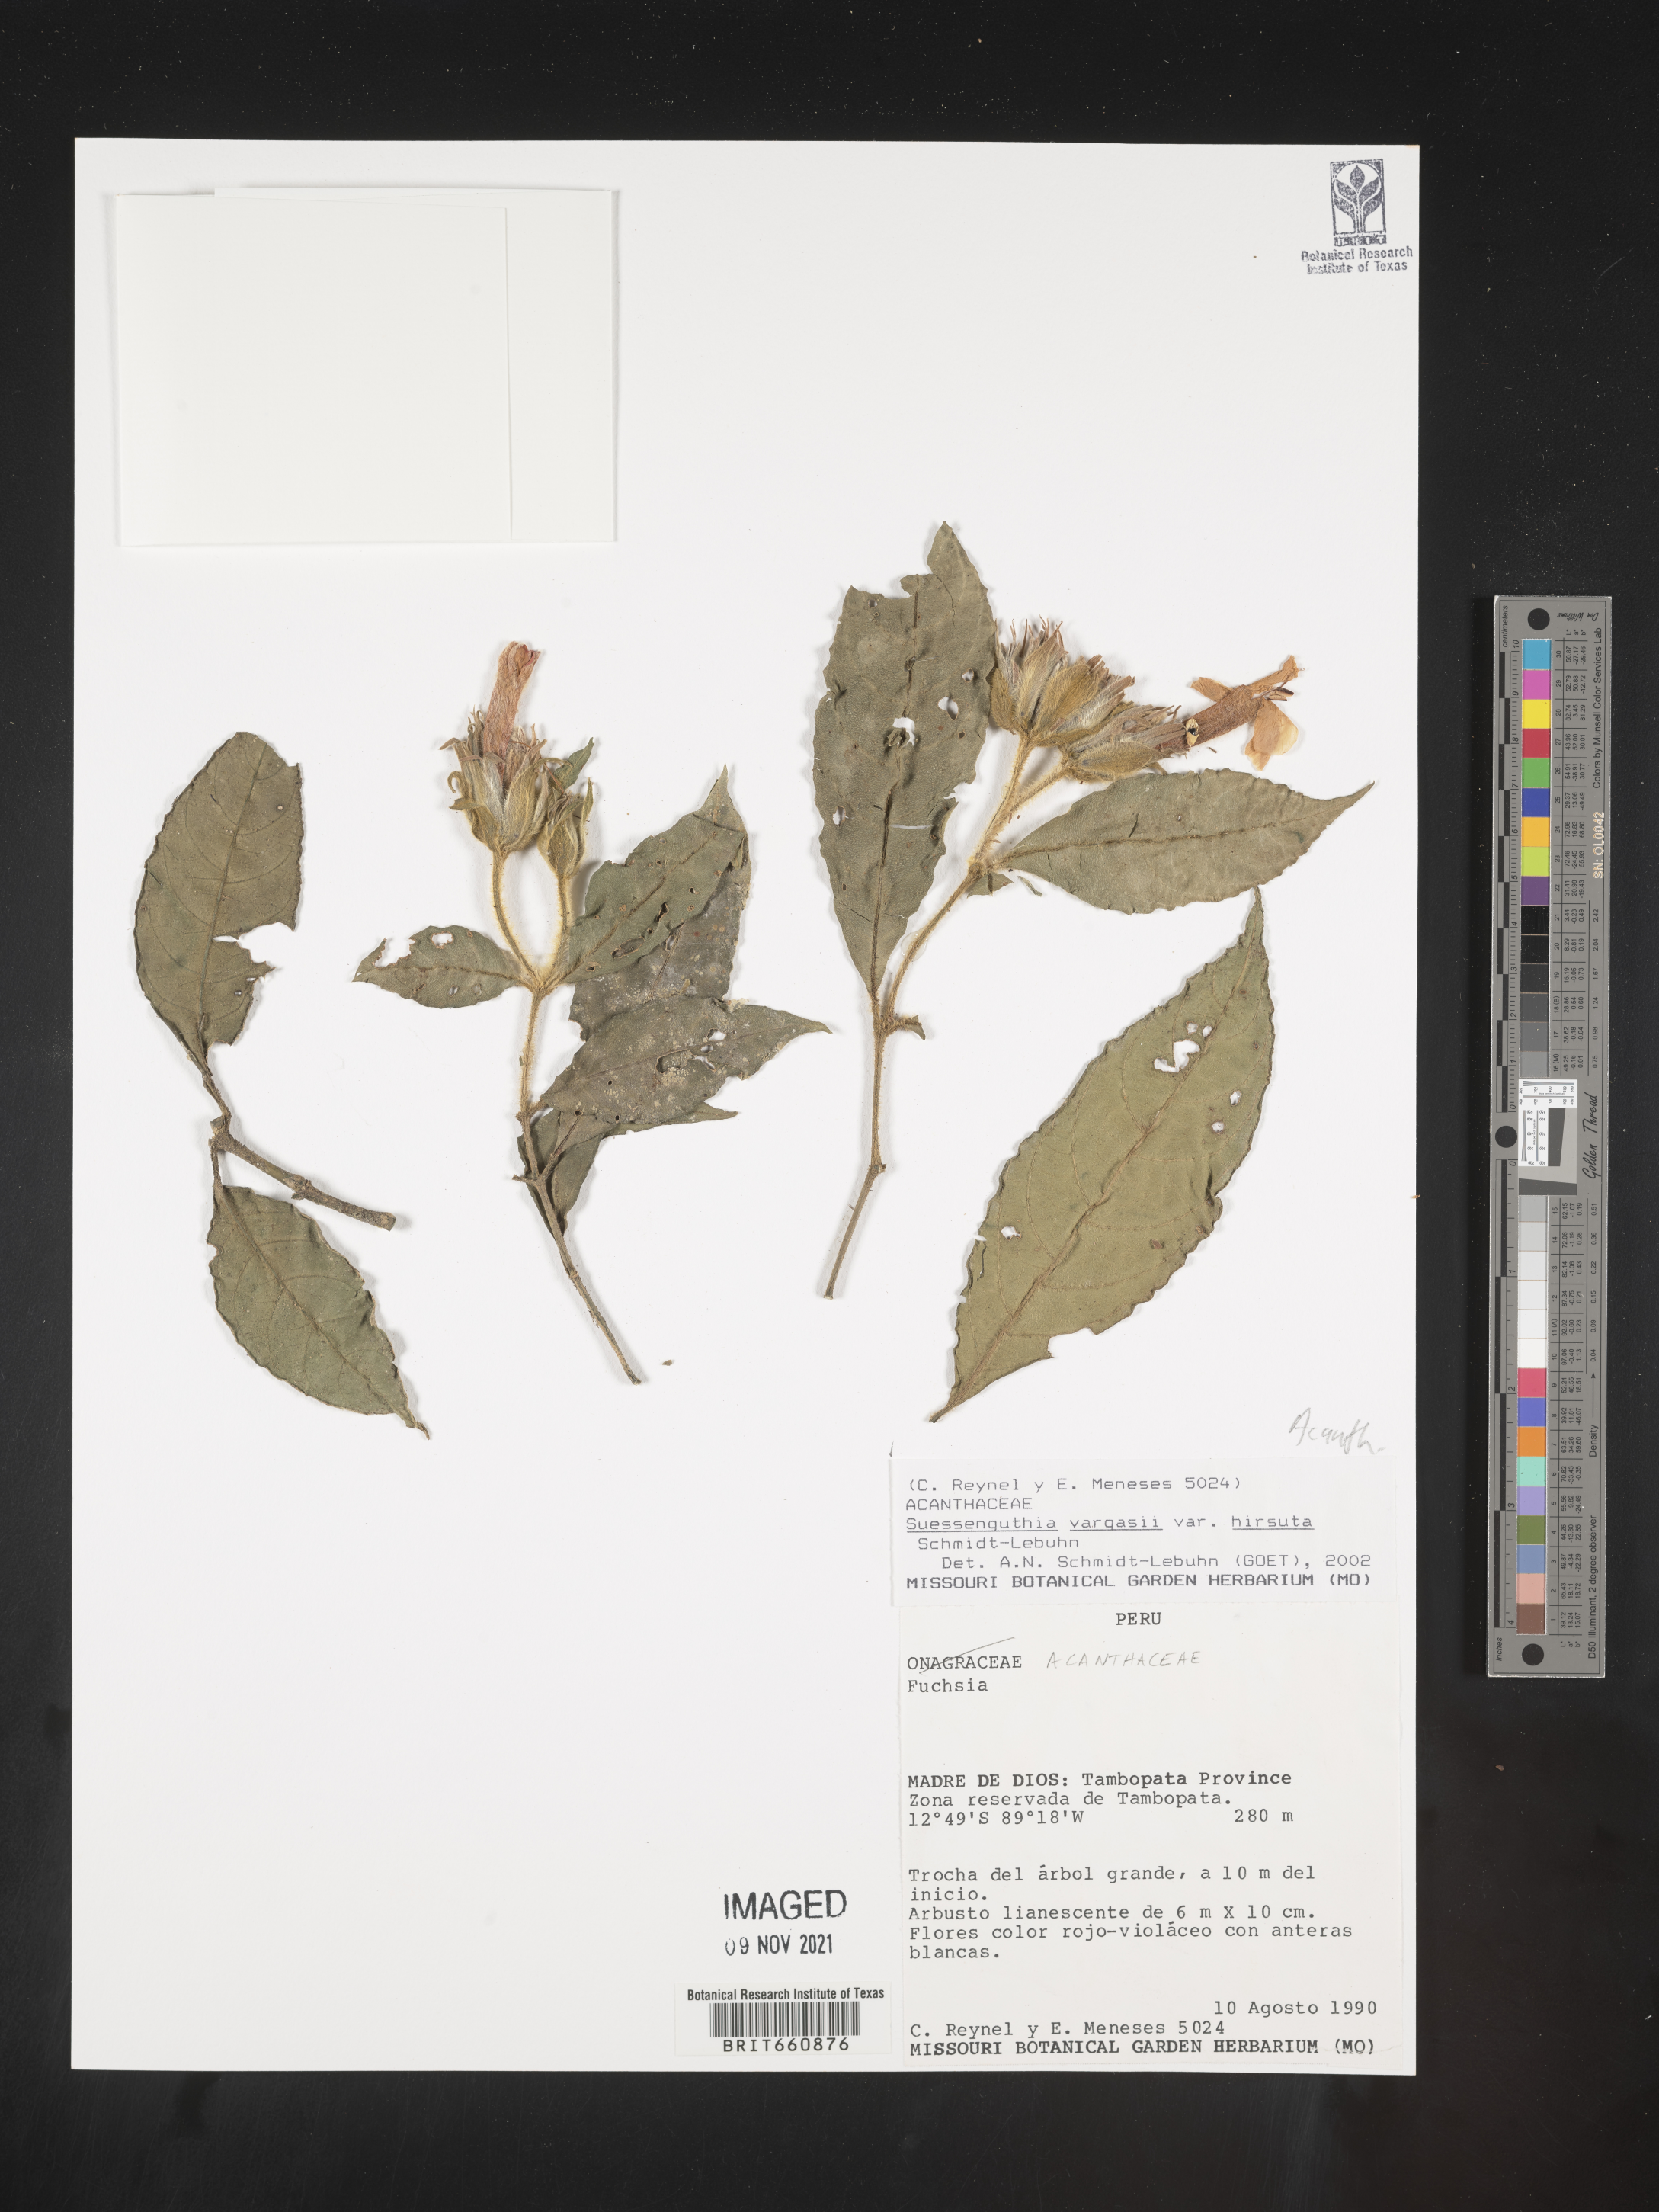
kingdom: Plantae
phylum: Tracheophyta
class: Magnoliopsida
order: Lamiales
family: Acanthaceae
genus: Suessenguthia
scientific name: Suessenguthia
